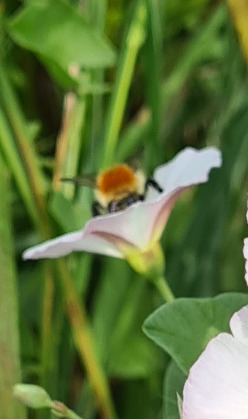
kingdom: Plantae
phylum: Tracheophyta
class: Magnoliopsida
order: Solanales
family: Convolvulaceae
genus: Convolvulus
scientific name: Convolvulus arvensis
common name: Ager-snerle
